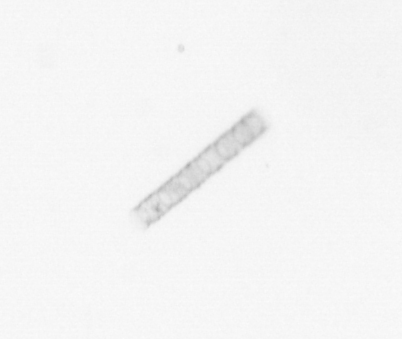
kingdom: Chromista
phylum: Ochrophyta
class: Bacillariophyceae
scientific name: Bacillariophyceae
